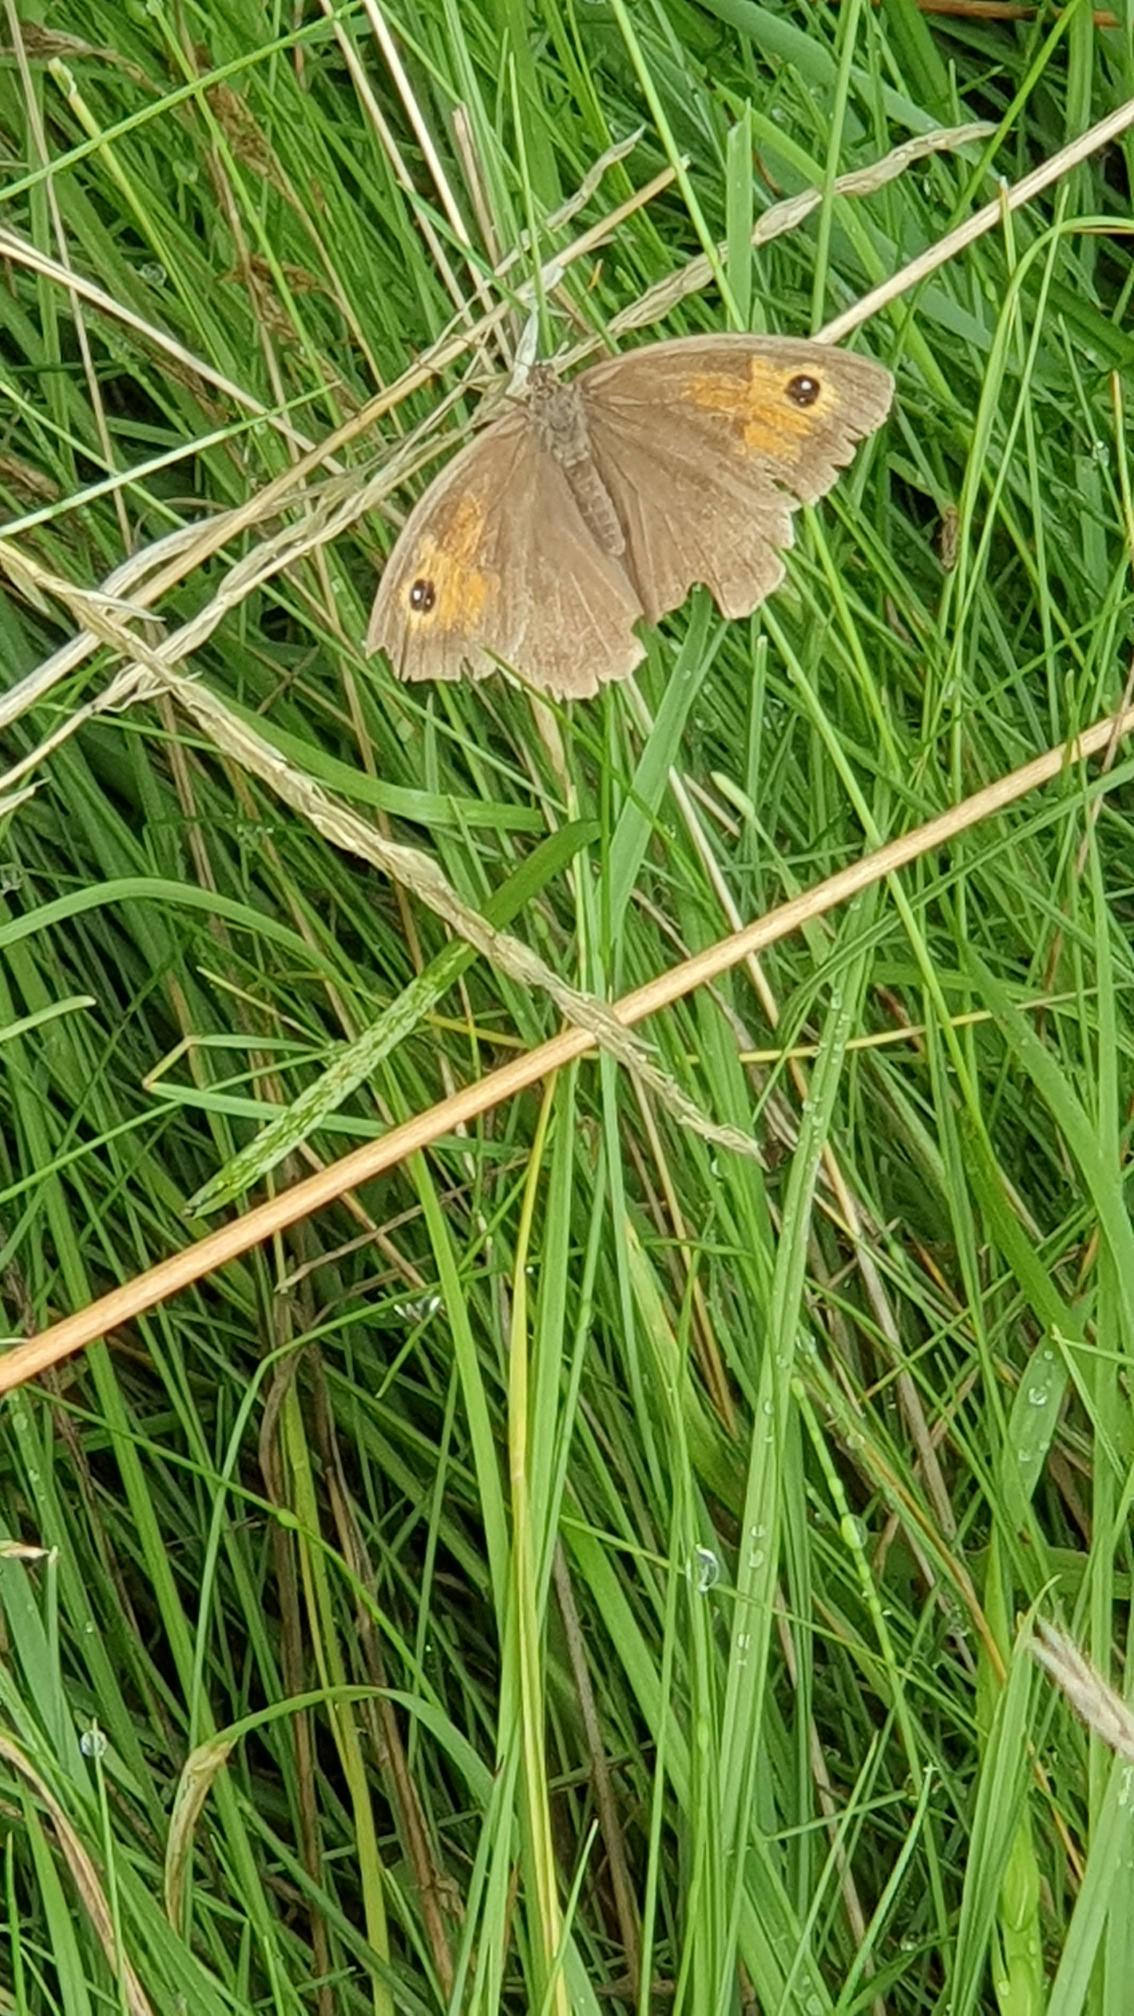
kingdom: Animalia
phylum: Arthropoda
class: Insecta
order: Lepidoptera
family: Nymphalidae
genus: Maniola
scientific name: Maniola jurtina
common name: Græsrandøje
